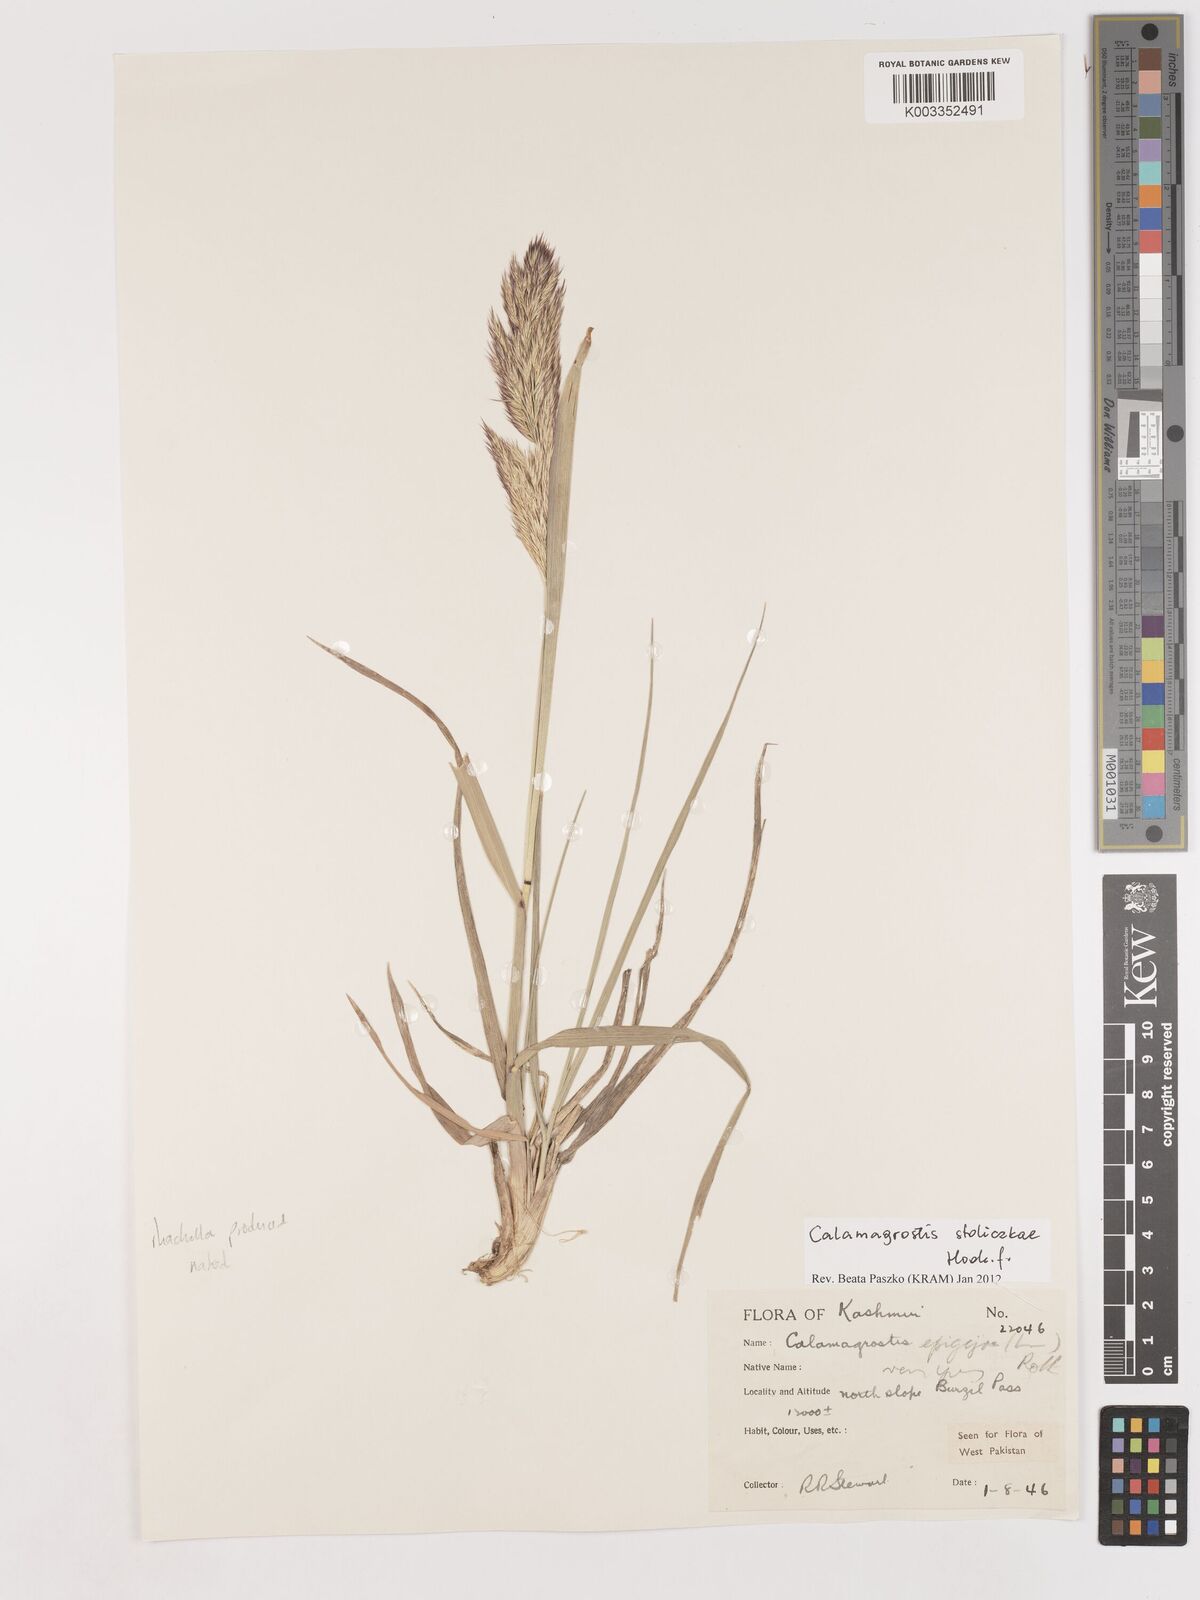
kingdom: Plantae
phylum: Tracheophyta
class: Liliopsida
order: Poales
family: Poaceae
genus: Calamagrostis
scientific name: Calamagrostis stolizkae
